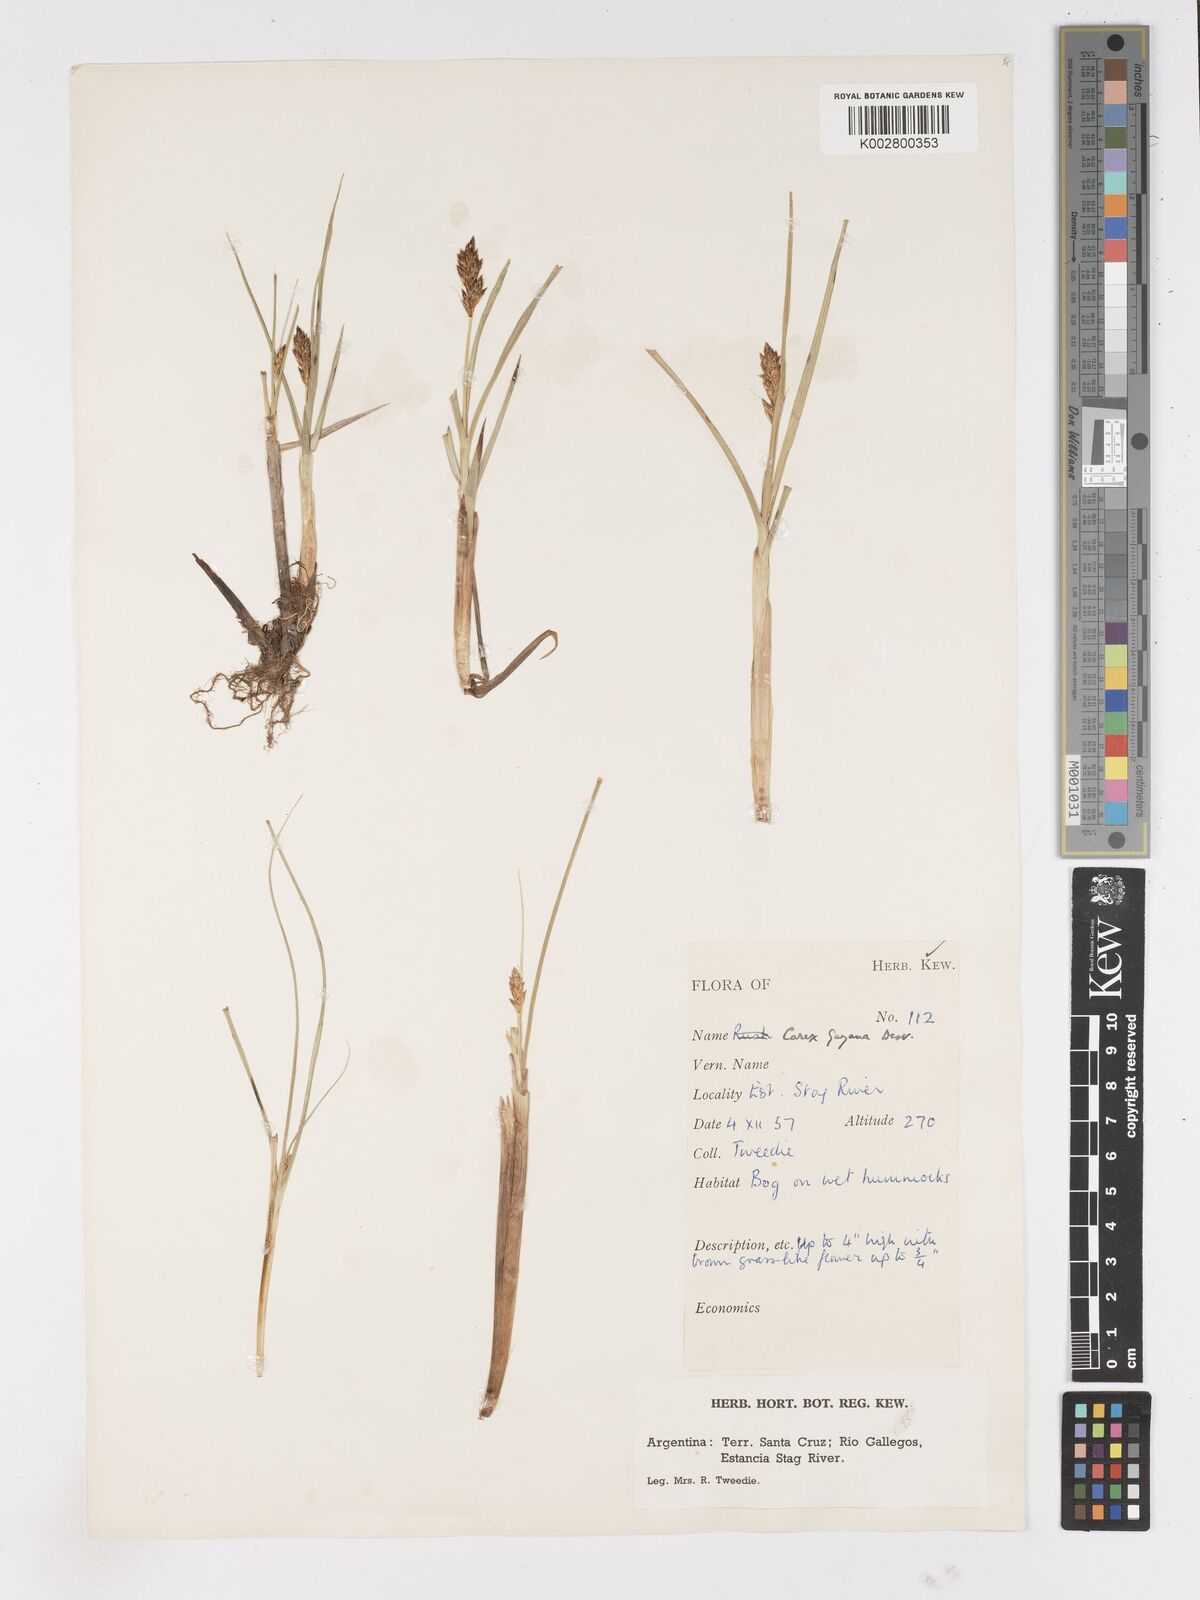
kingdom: Plantae
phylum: Tracheophyta
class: Liliopsida
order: Poales
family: Cyperaceae
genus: Carex
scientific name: Carex gayana
